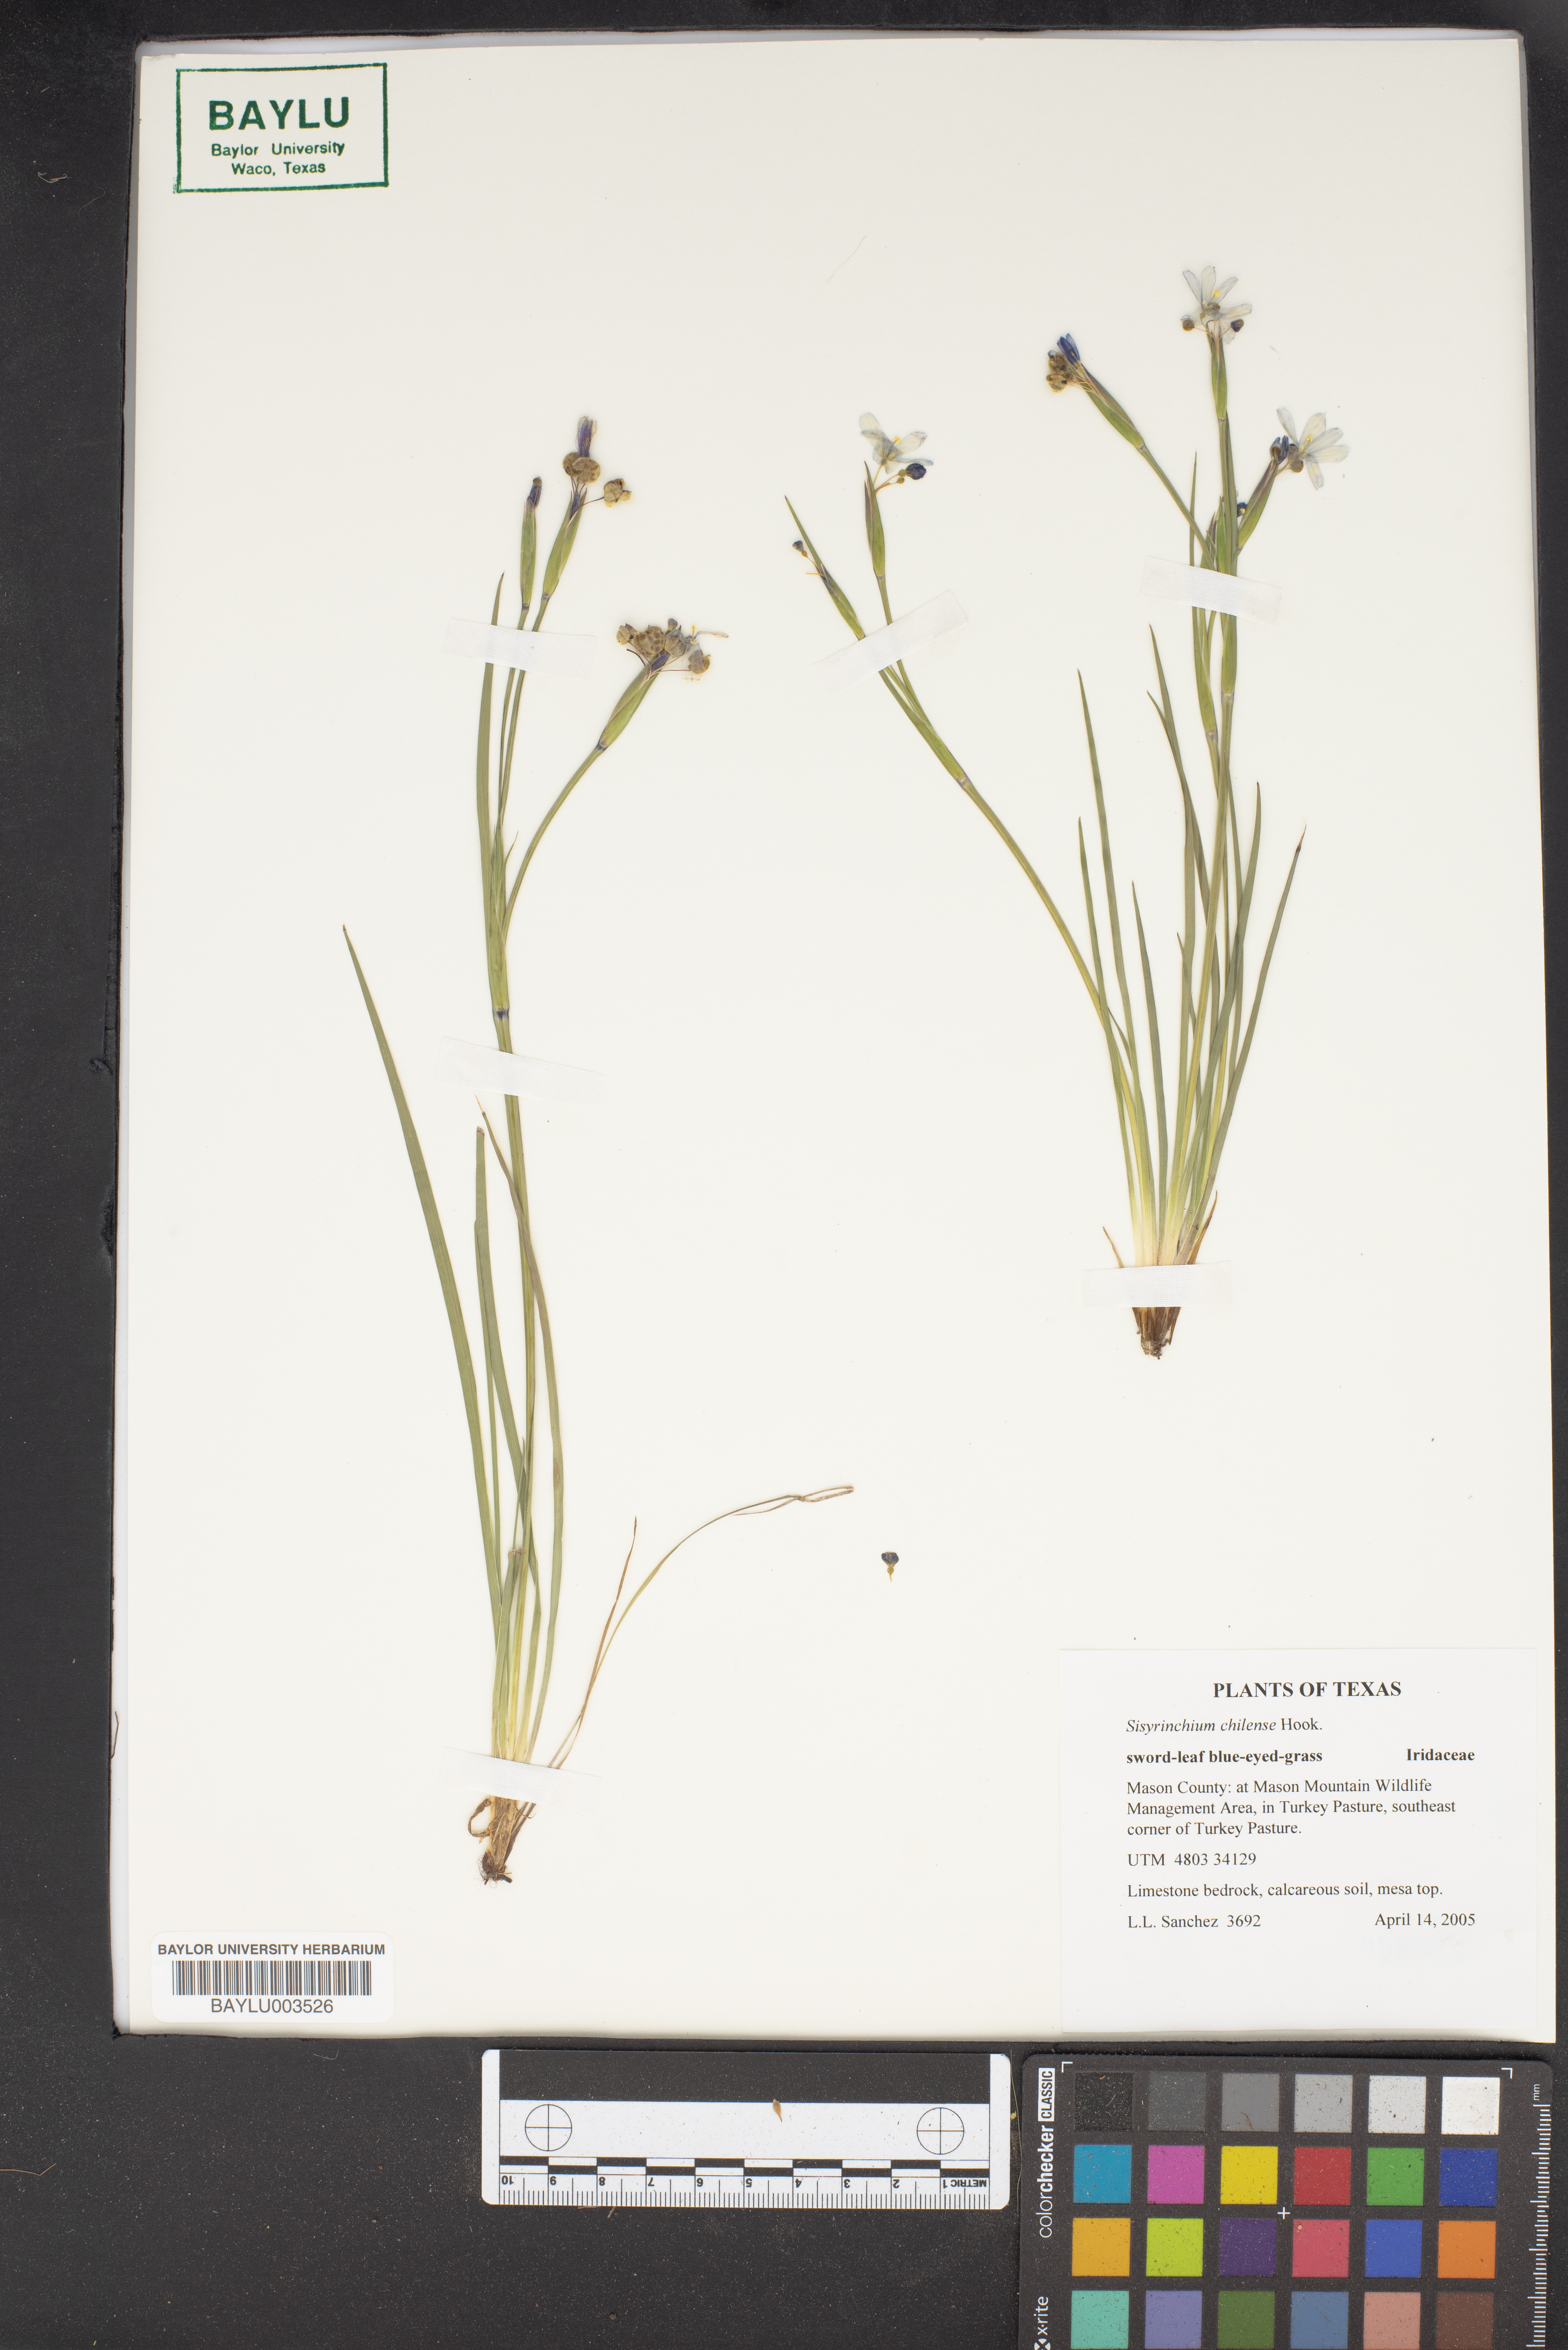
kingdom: Plantae
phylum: Tracheophyta
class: Liliopsida
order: Asparagales
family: Iridaceae
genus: Sisyrinchium
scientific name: Sisyrinchium chilense
